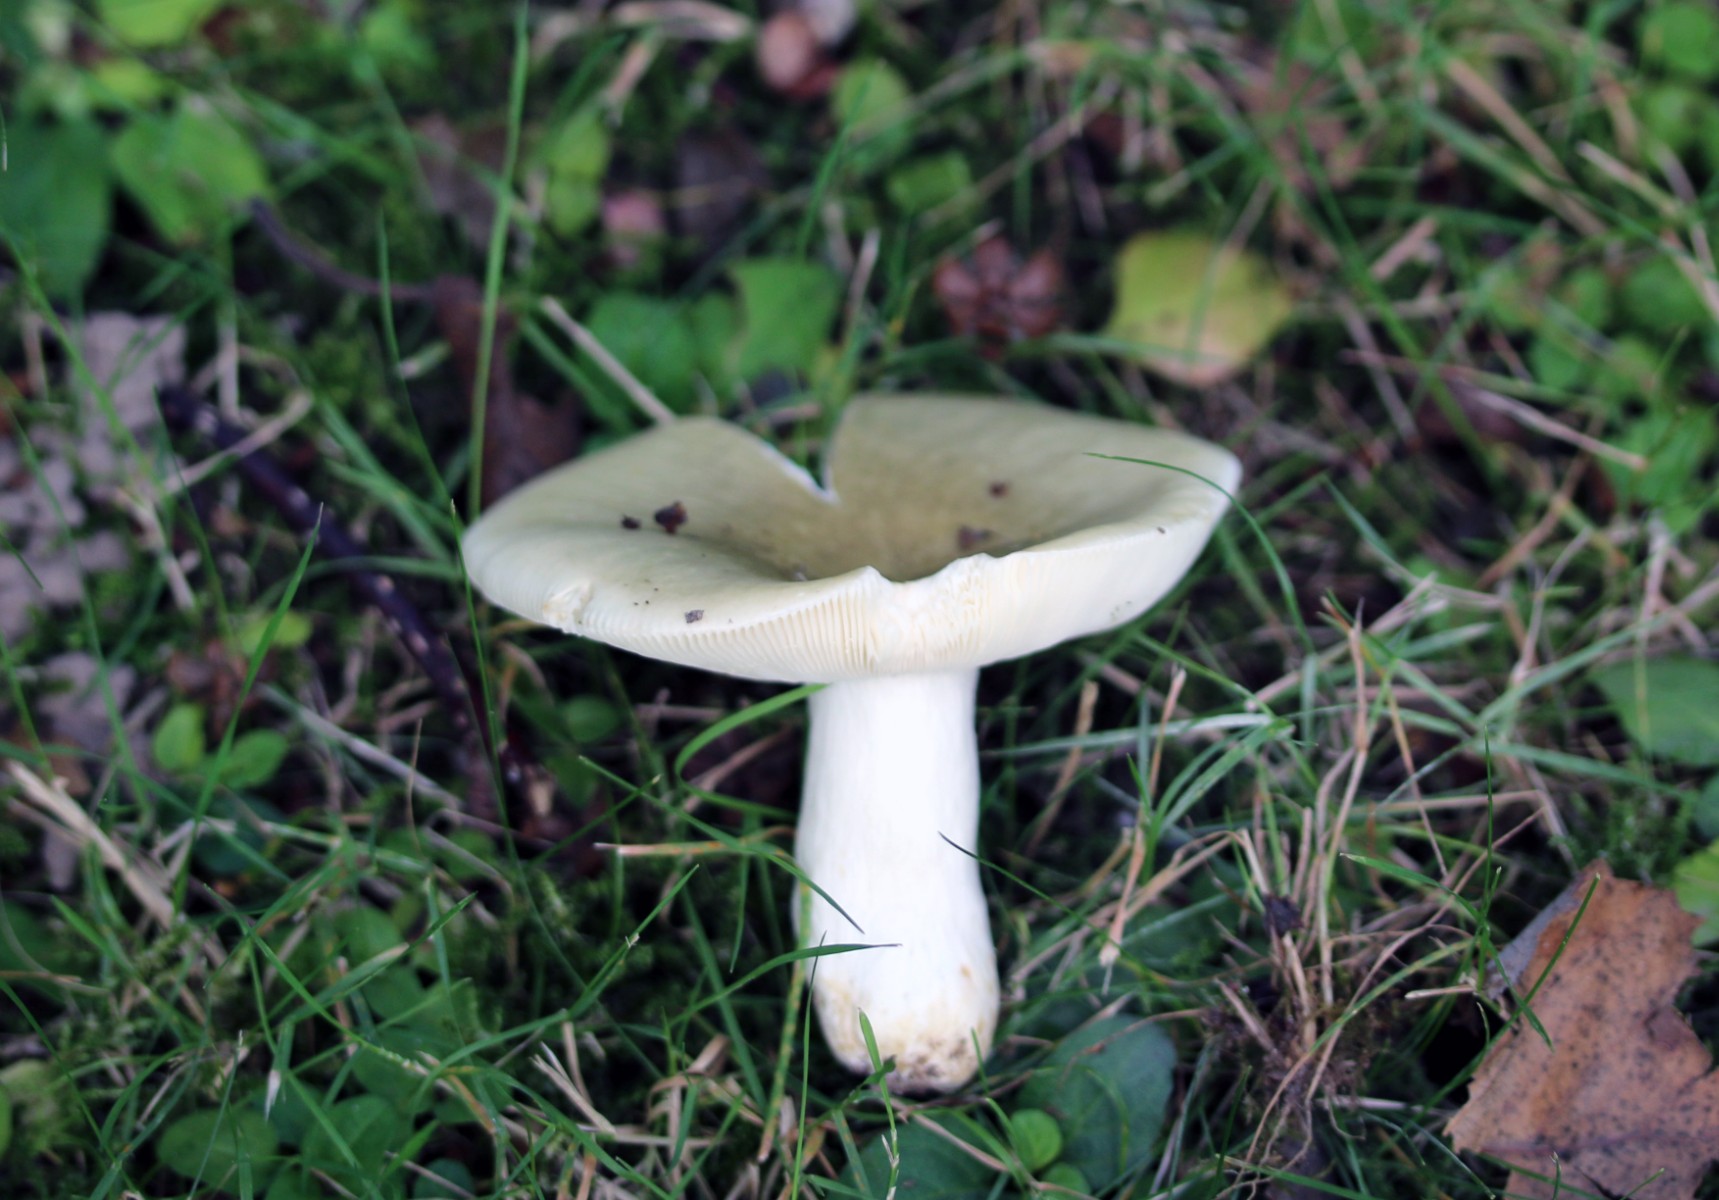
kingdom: Fungi
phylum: Basidiomycota
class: Agaricomycetes
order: Russulales
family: Russulaceae
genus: Russula
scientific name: Russula aeruginea
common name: græsgrøn skørhat
